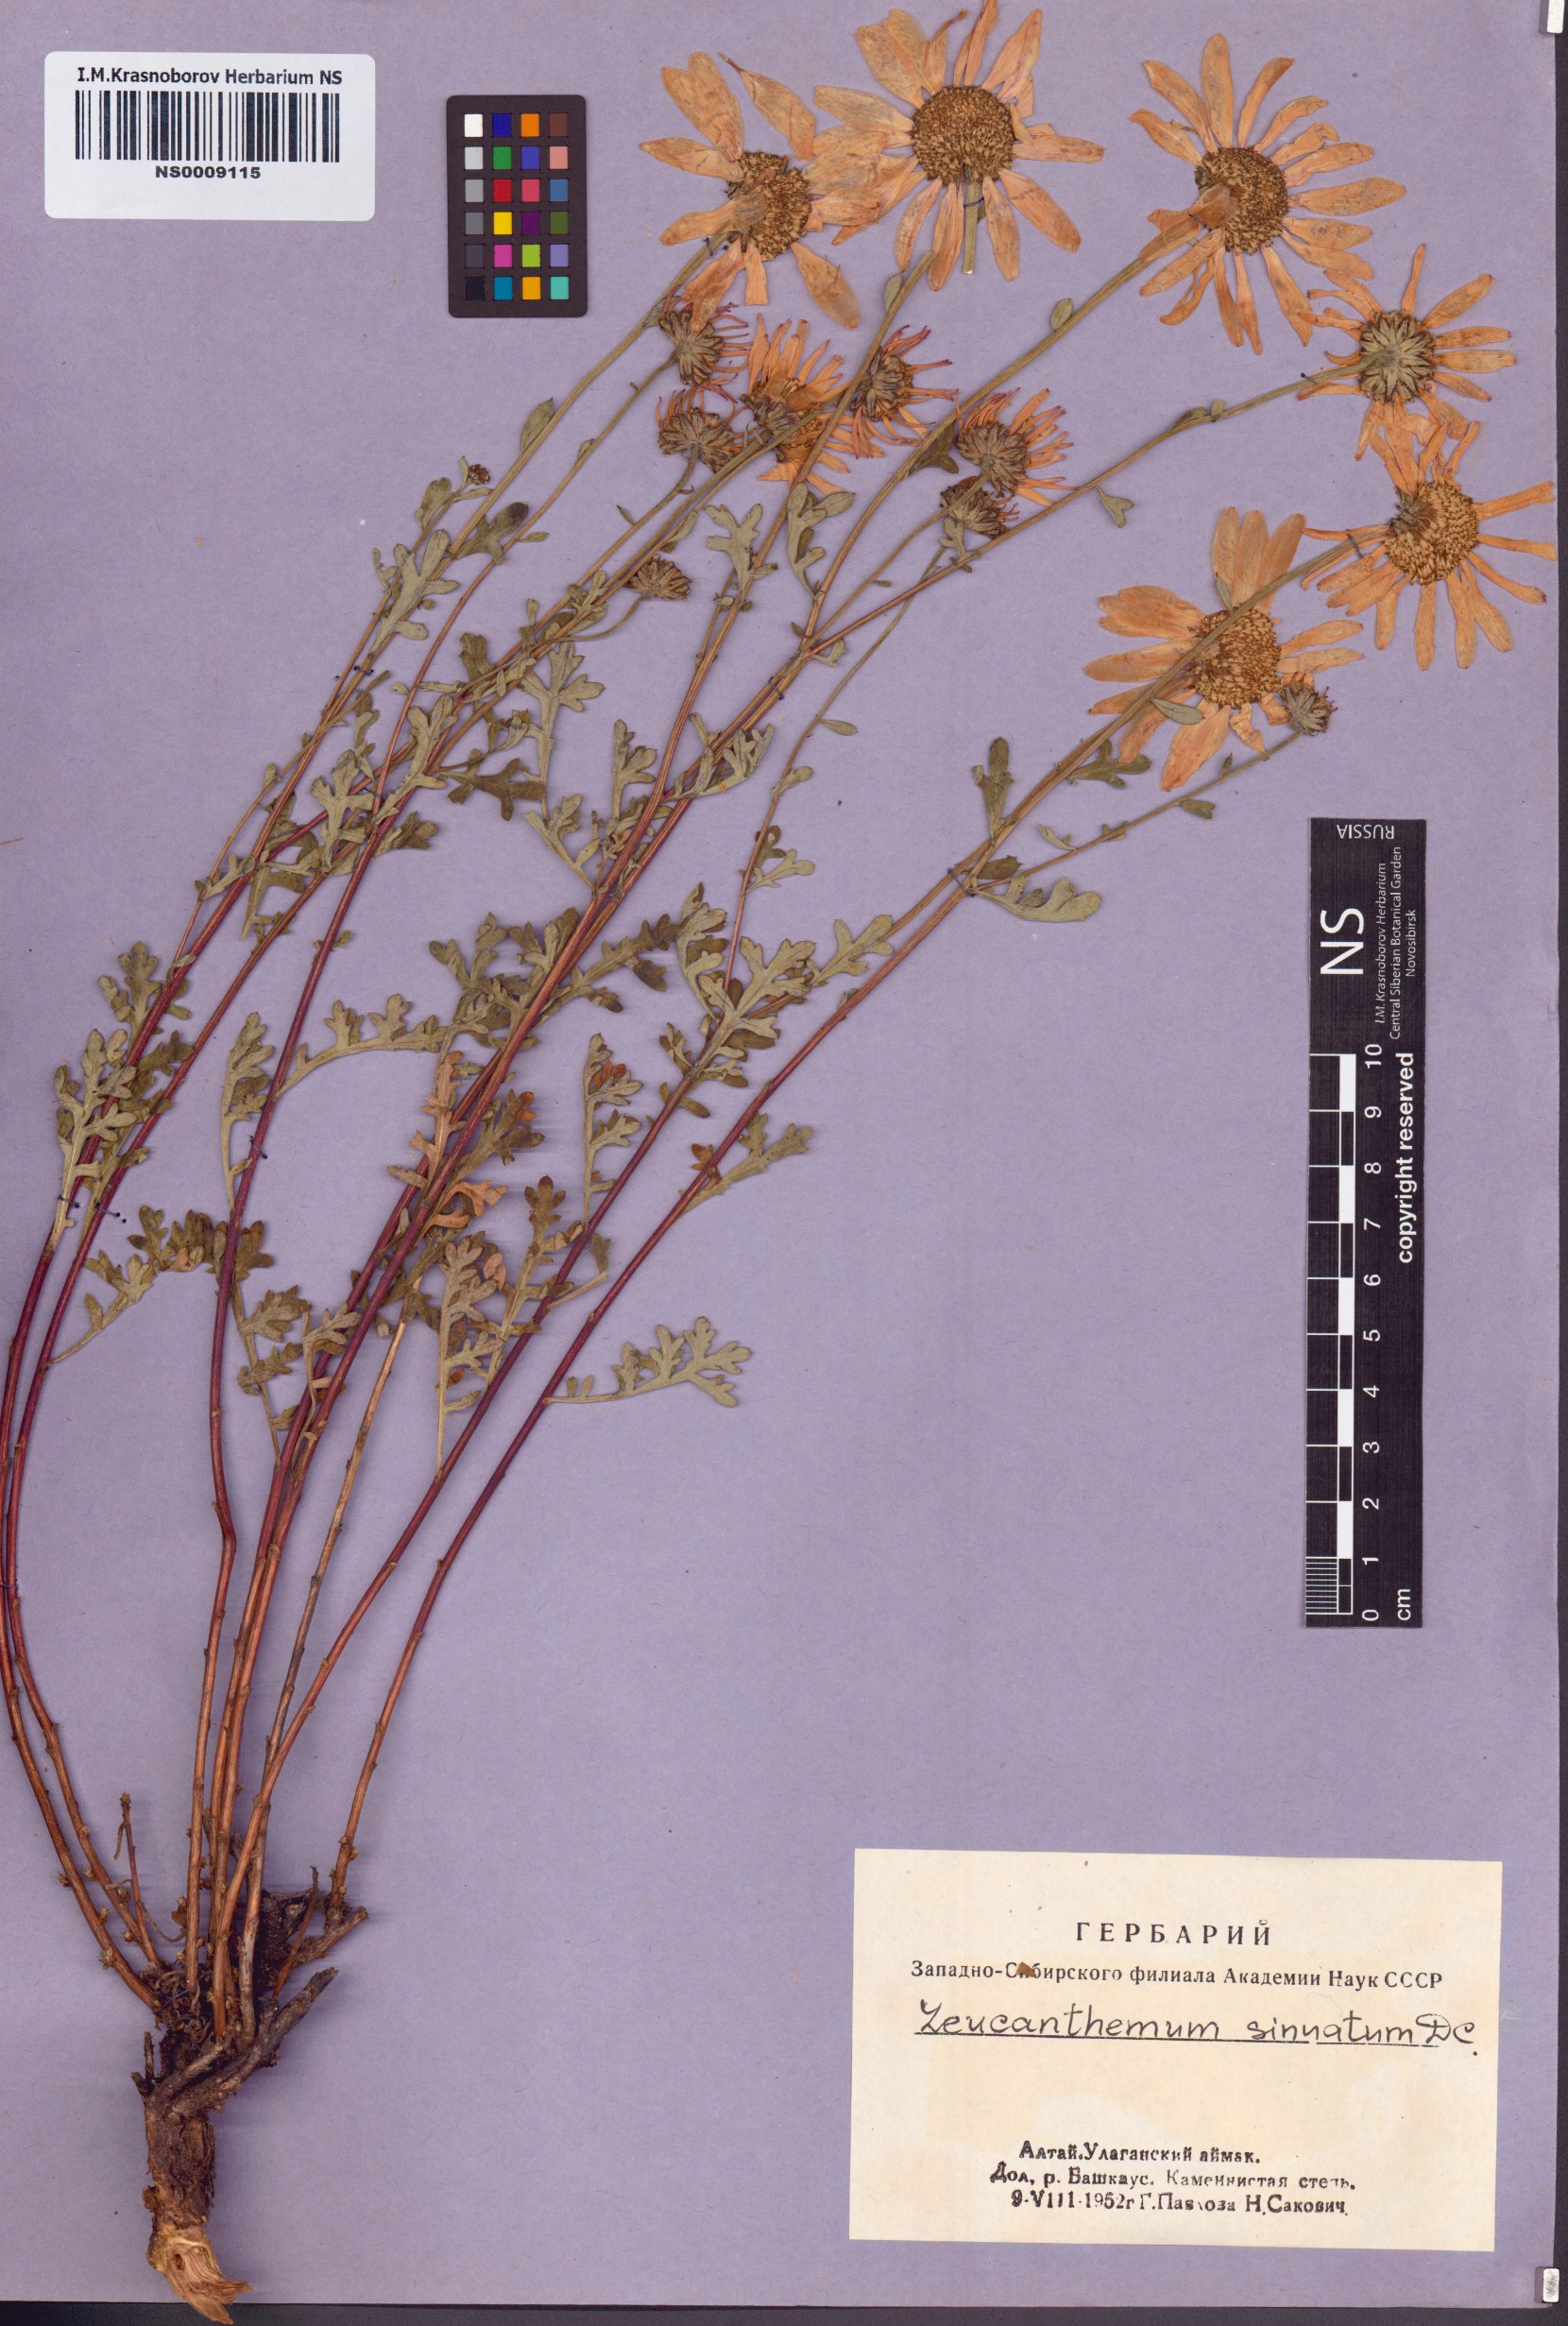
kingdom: Plantae
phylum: Tracheophyta
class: Magnoliopsida
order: Asterales
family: Asteraceae
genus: Chrysanthemum
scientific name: Chrysanthemum sinuatum
